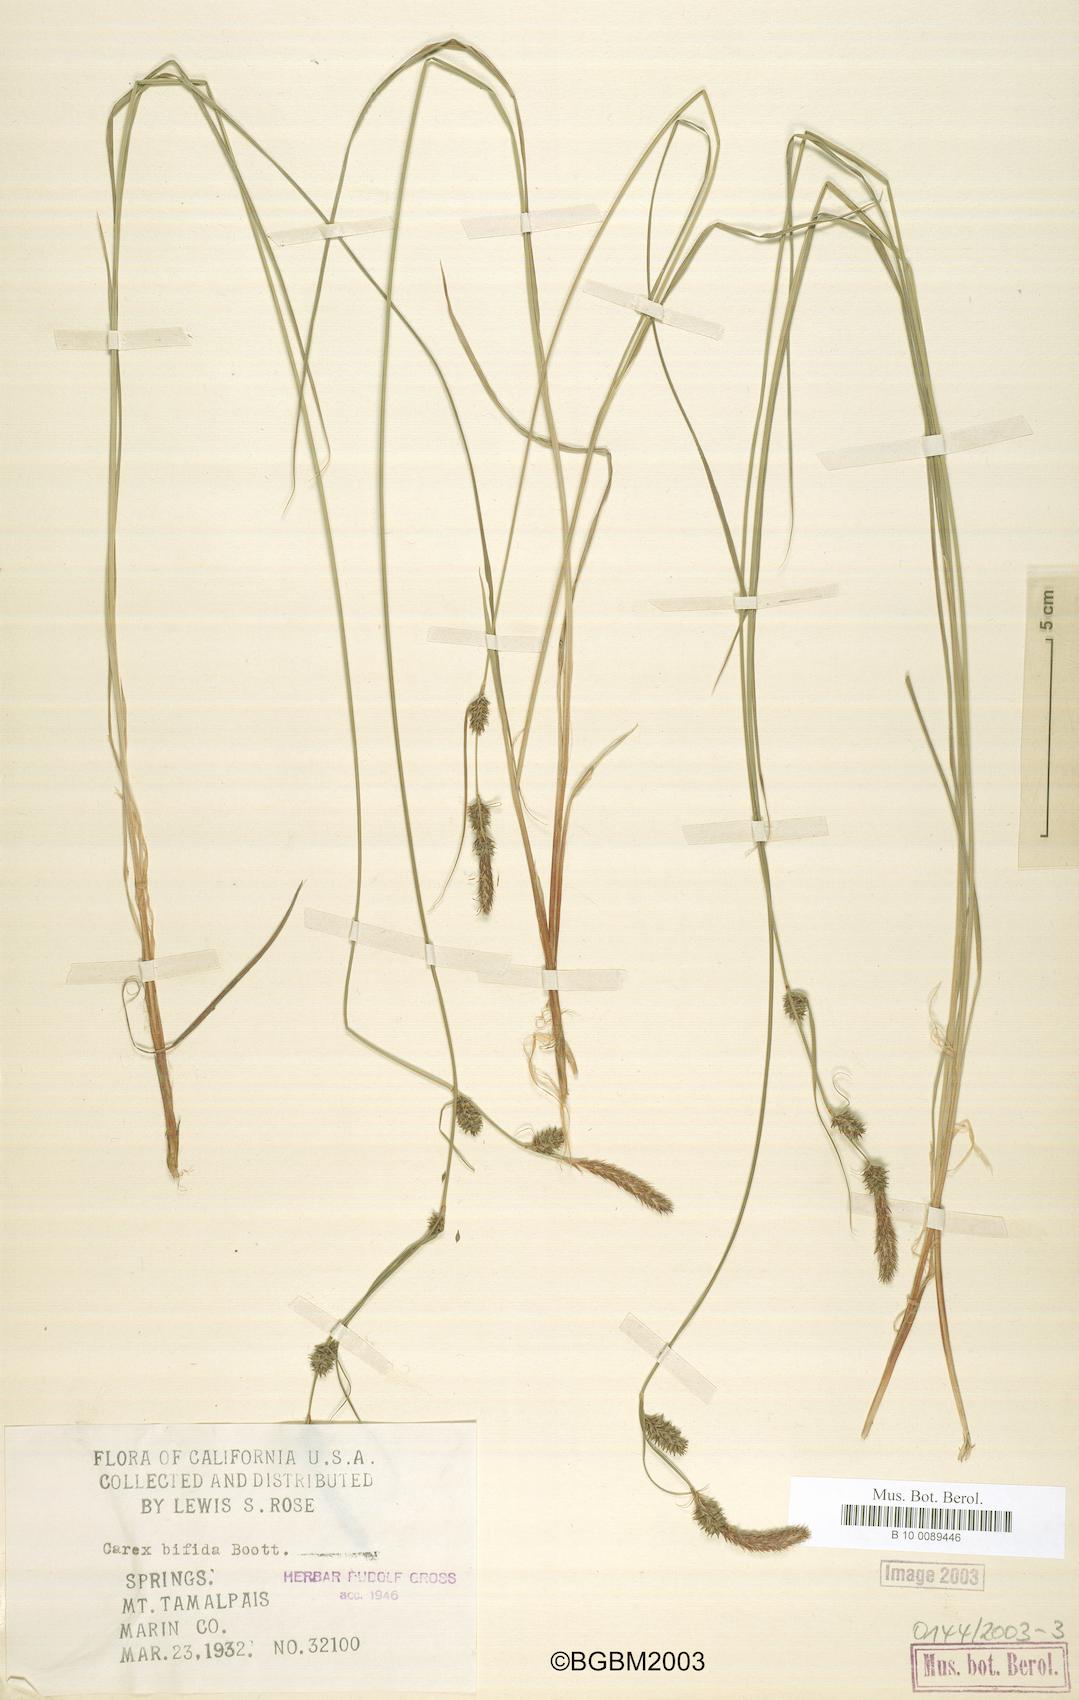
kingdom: Plantae
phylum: Tracheophyta
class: Liliopsida
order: Poales
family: Cyperaceae
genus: Carex
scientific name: Carex serratodens
